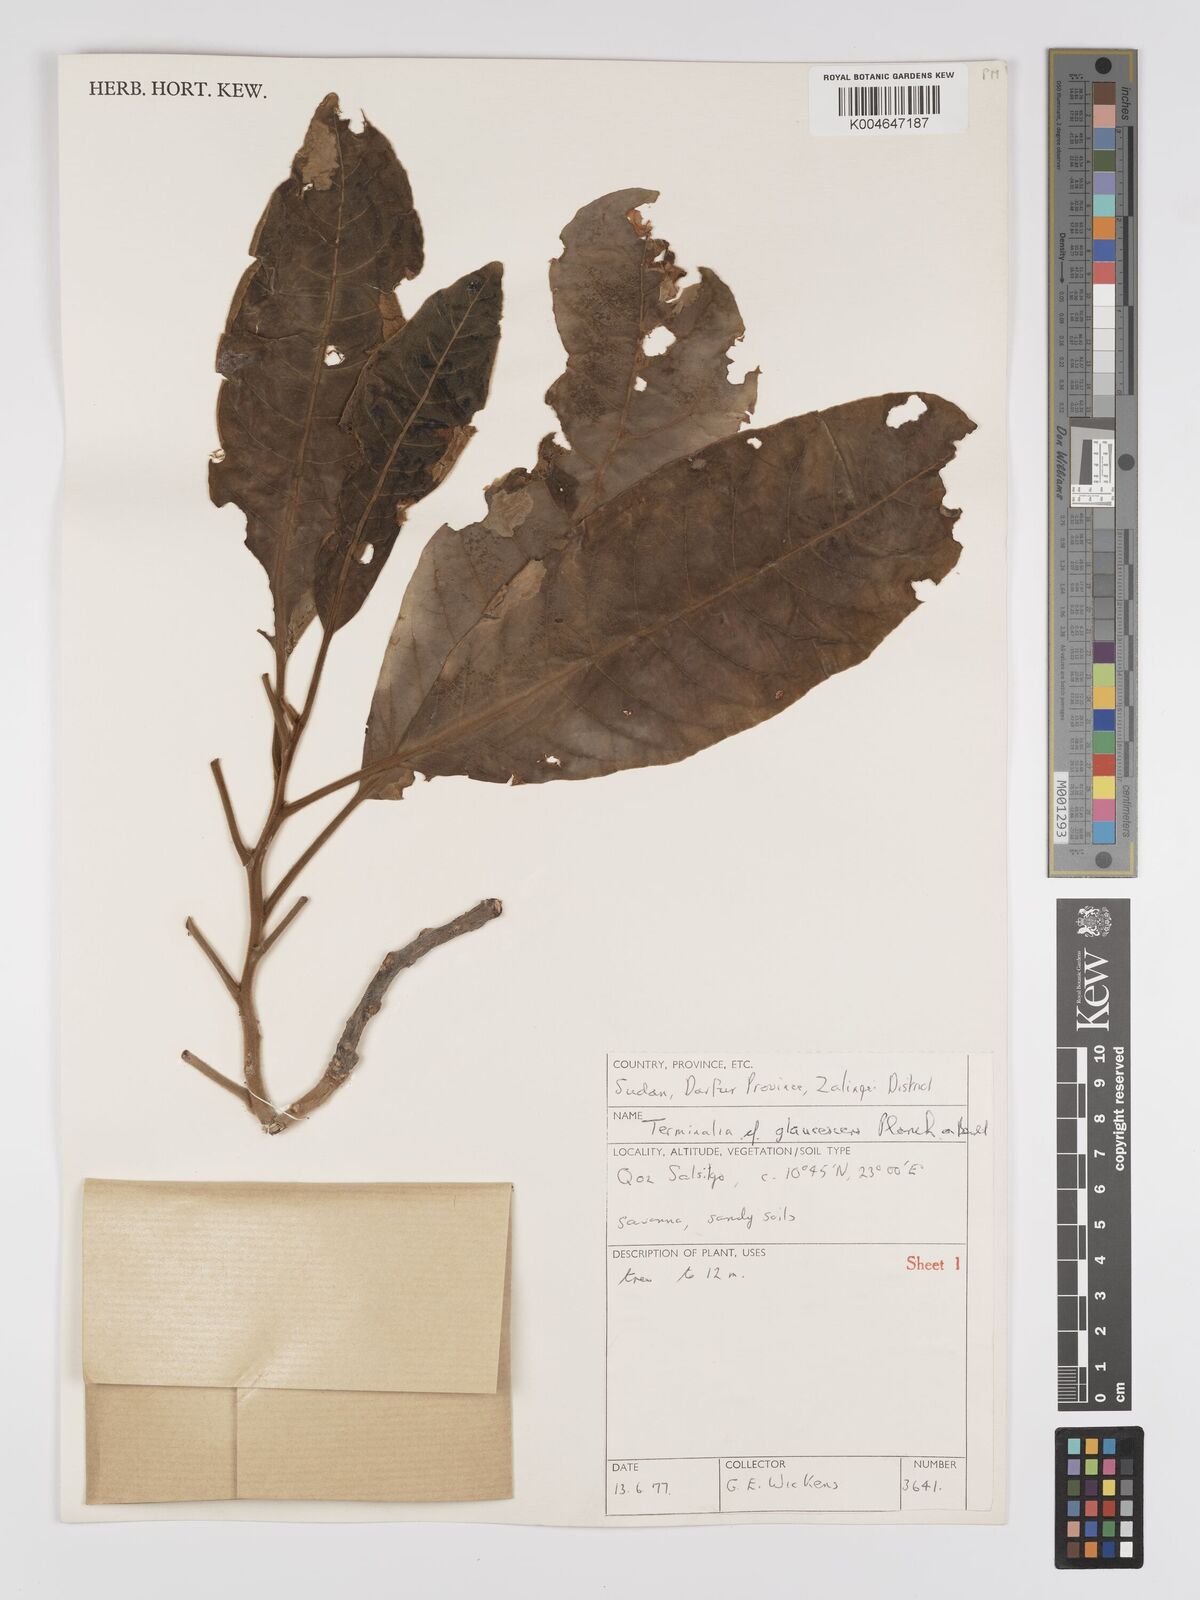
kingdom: Plantae
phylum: Tracheophyta
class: Magnoliopsida
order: Myrtales
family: Combretaceae
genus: Terminalia
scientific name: Terminalia schimperiana
